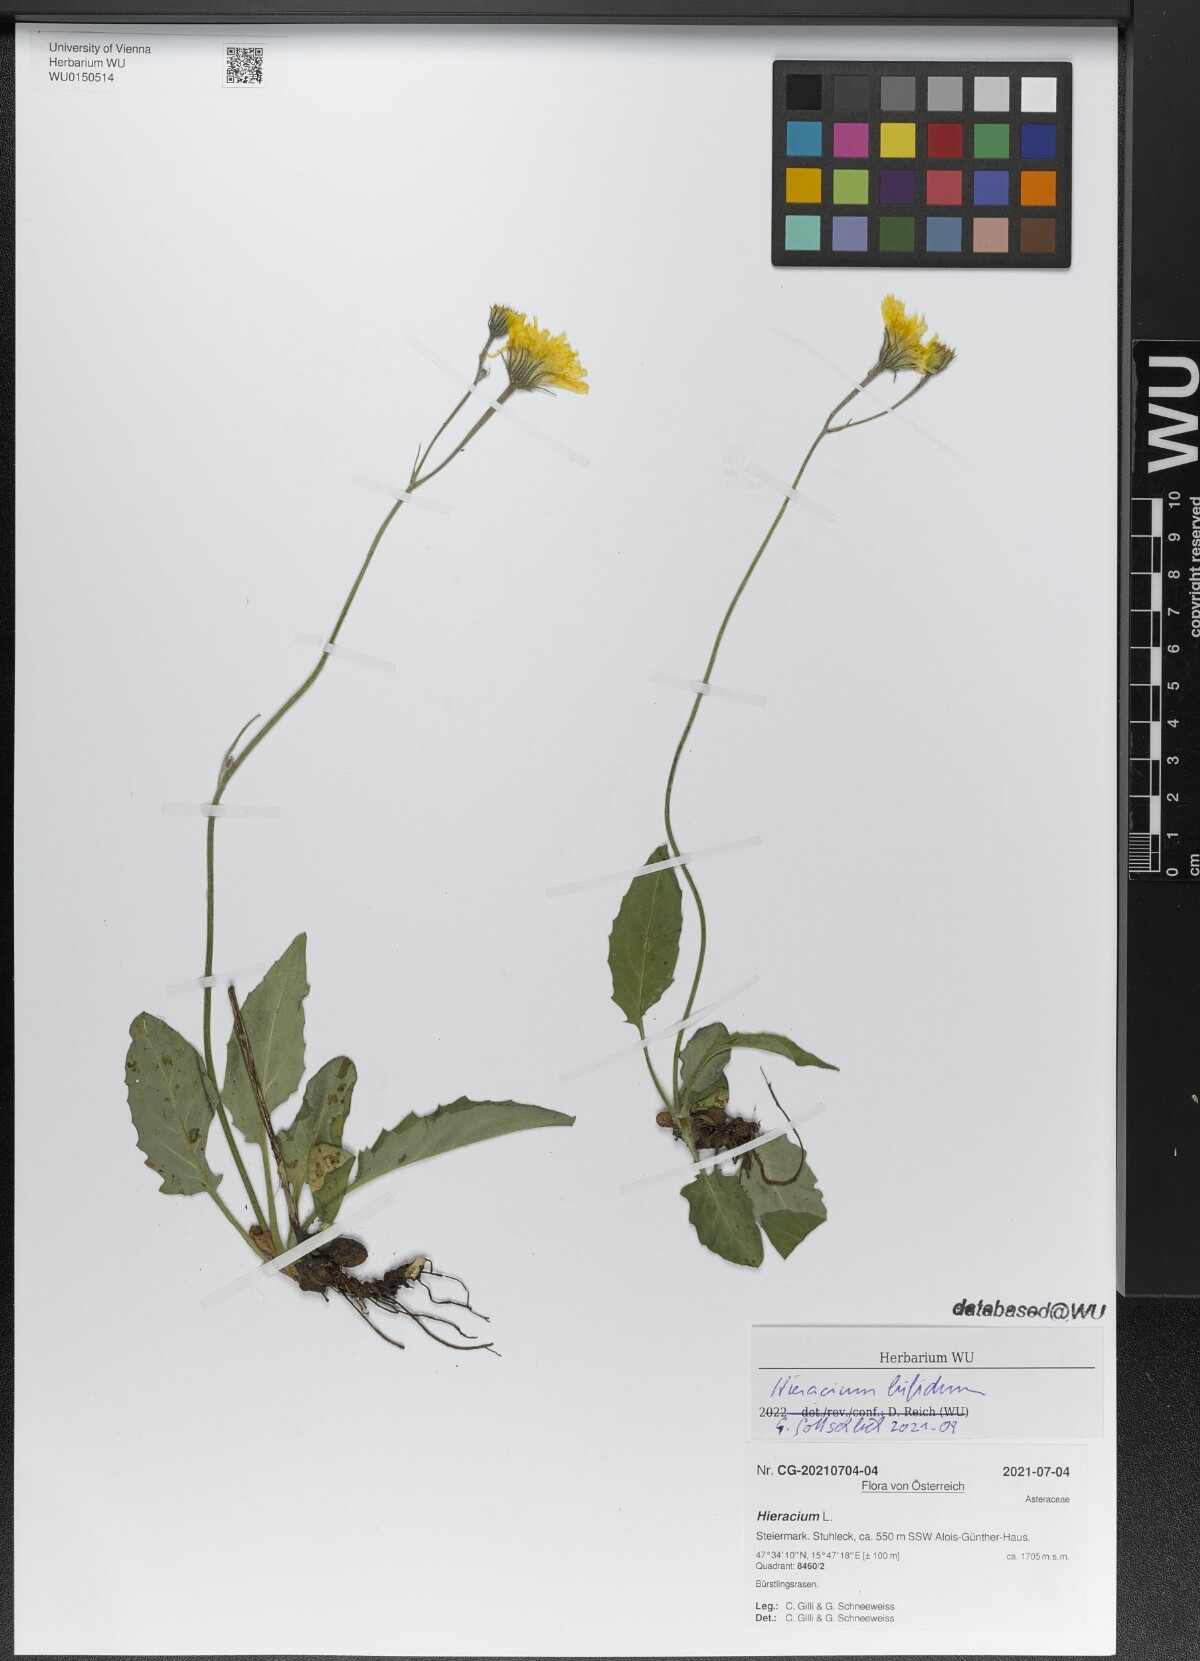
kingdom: Plantae
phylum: Tracheophyta
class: Magnoliopsida
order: Asterales
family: Asteraceae
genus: Hieracium
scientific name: Hieracium bifidum
